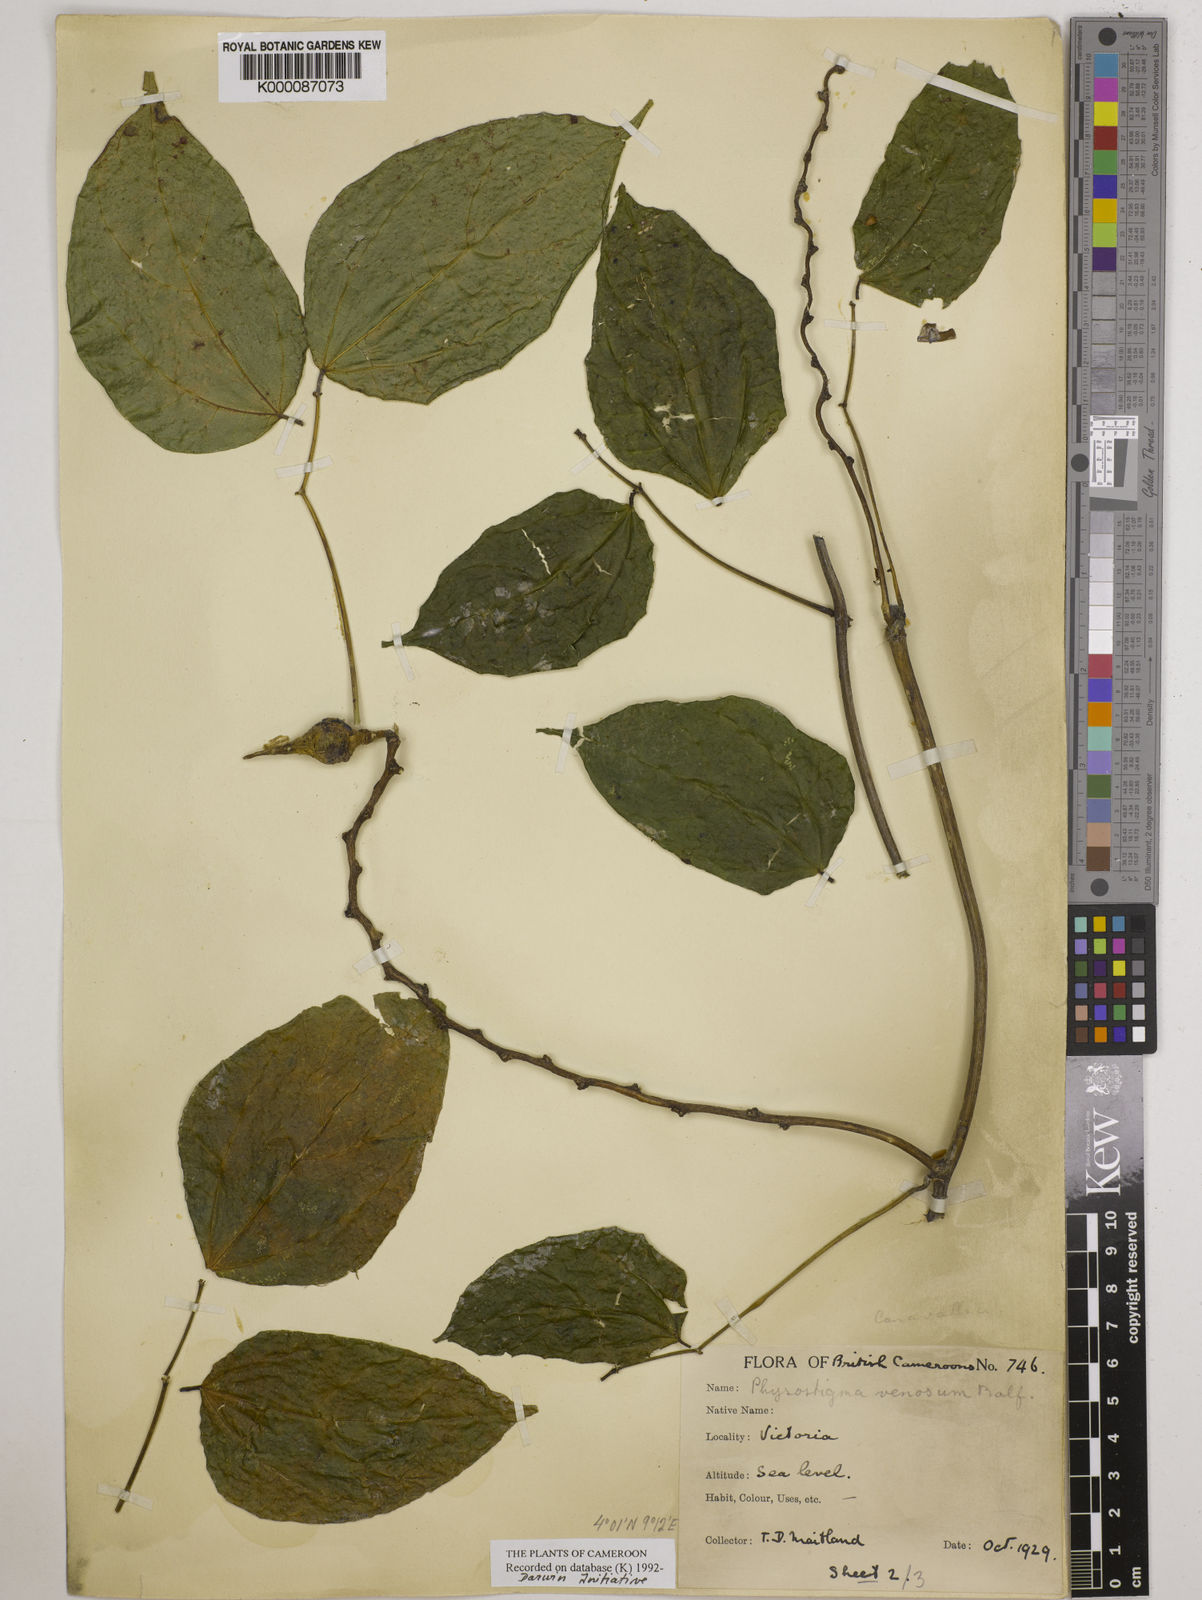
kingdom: Plantae
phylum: Tracheophyta
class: Magnoliopsida
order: Fabales
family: Fabaceae
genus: Physostigma
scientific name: Physostigma venenosum
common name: Calabar-bean
